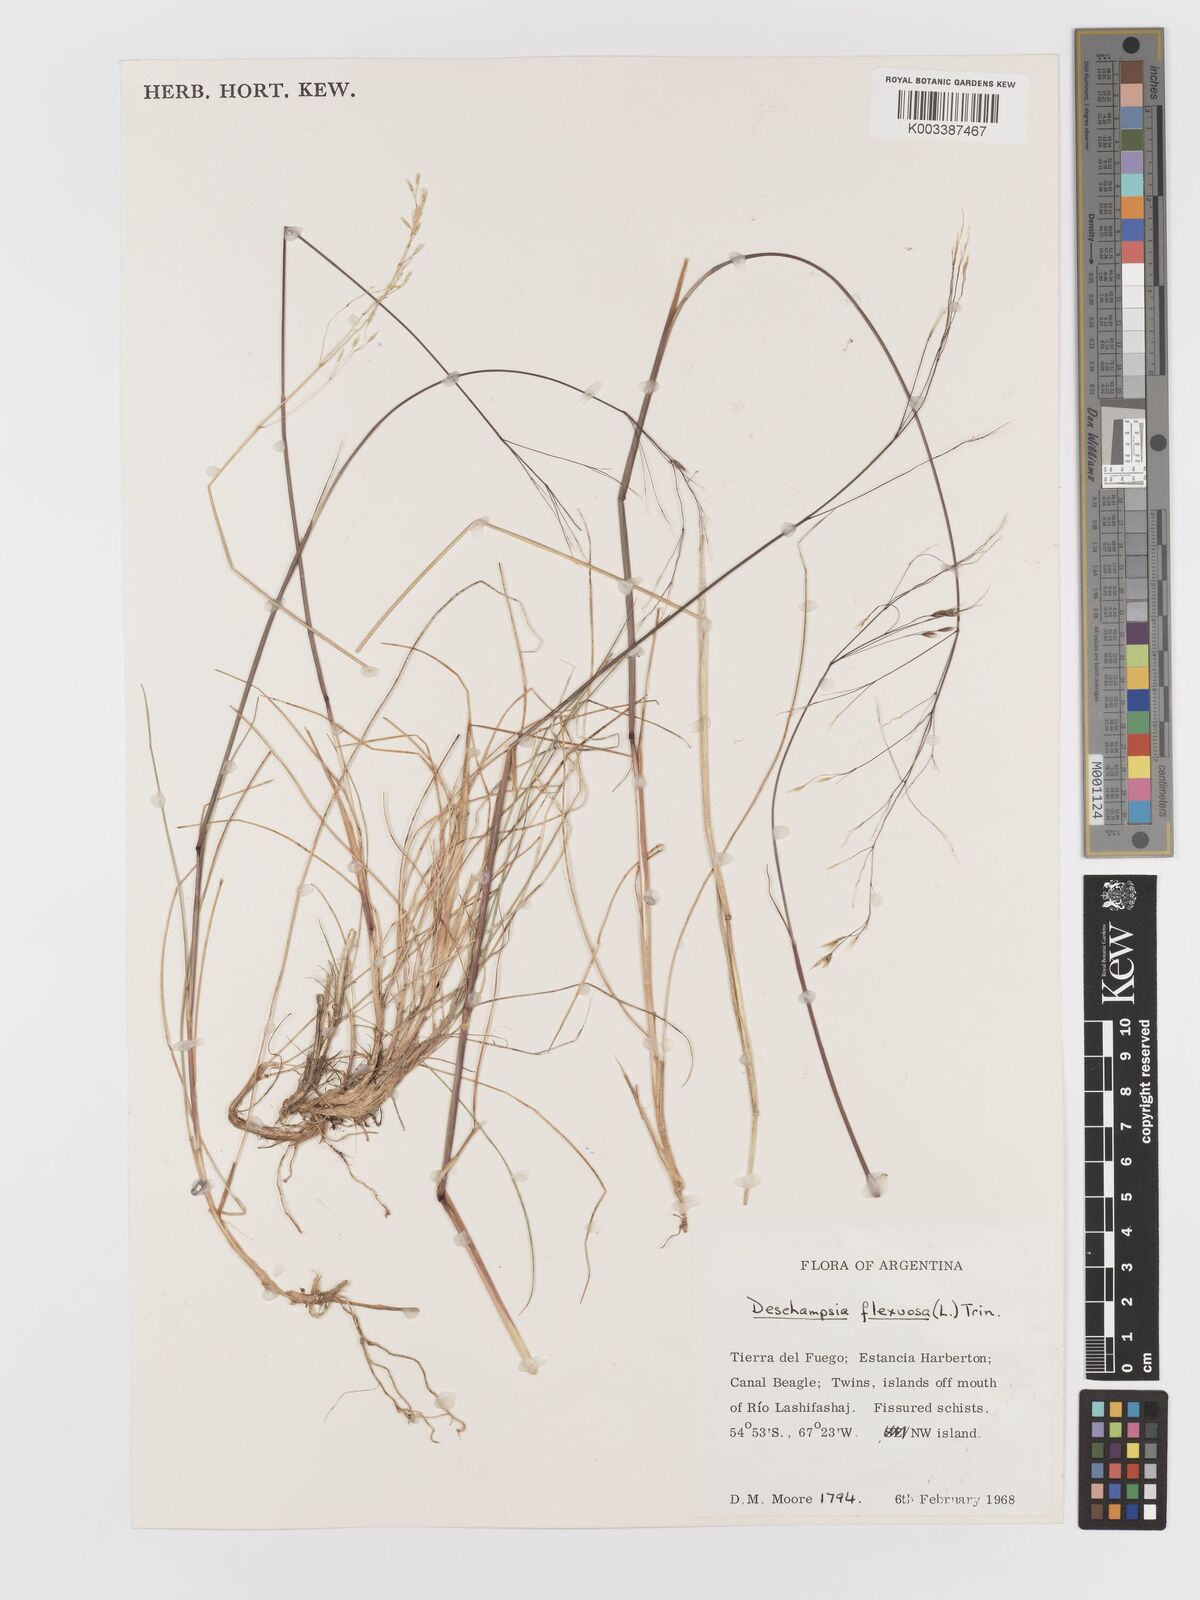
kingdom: Plantae
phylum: Tracheophyta
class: Liliopsida
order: Poales
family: Poaceae
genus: Avenella
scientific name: Avenella flexuosa
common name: Wavy hairgrass
